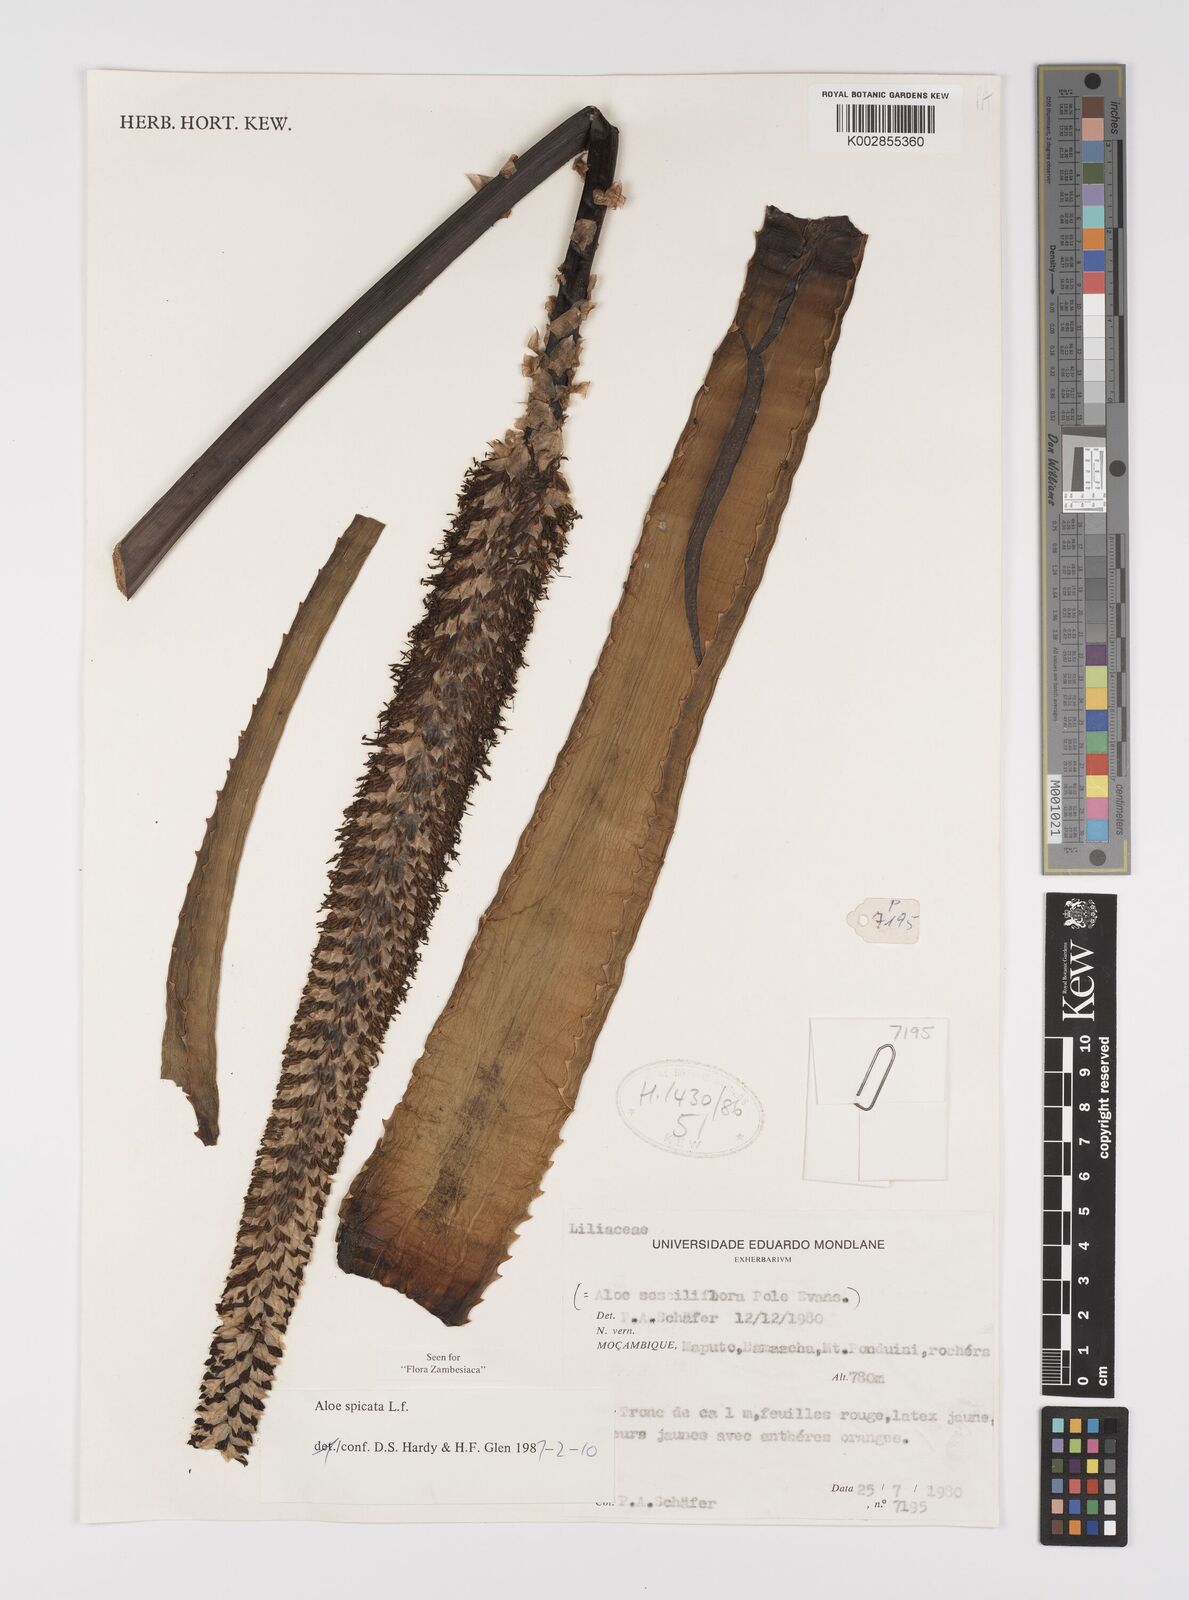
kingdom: Plantae
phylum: Tracheophyta
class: Liliopsida
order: Asparagales
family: Asphodelaceae
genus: Aloe
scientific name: Aloe spicata
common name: Gazaland aloe
